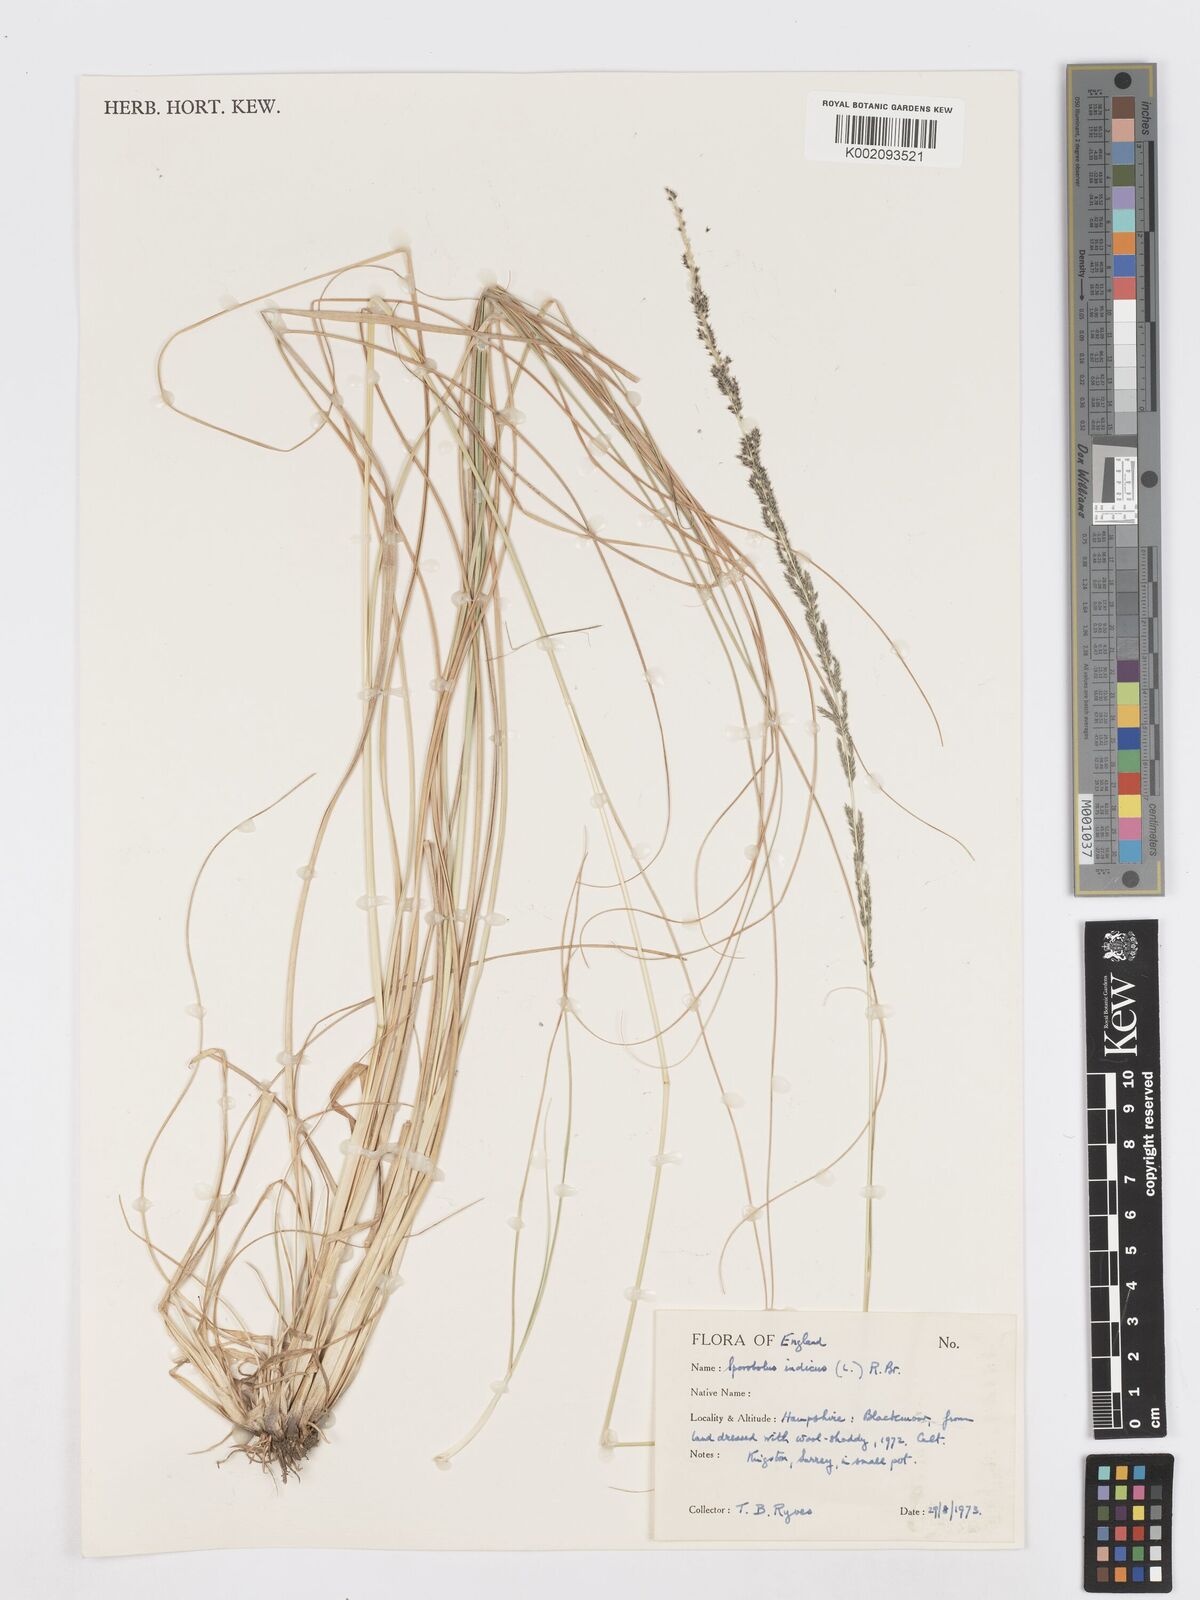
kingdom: Plantae
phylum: Tracheophyta
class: Liliopsida
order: Poales
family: Poaceae
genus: Sporobolus
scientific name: Sporobolus elongatus
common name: Rat tail grass
